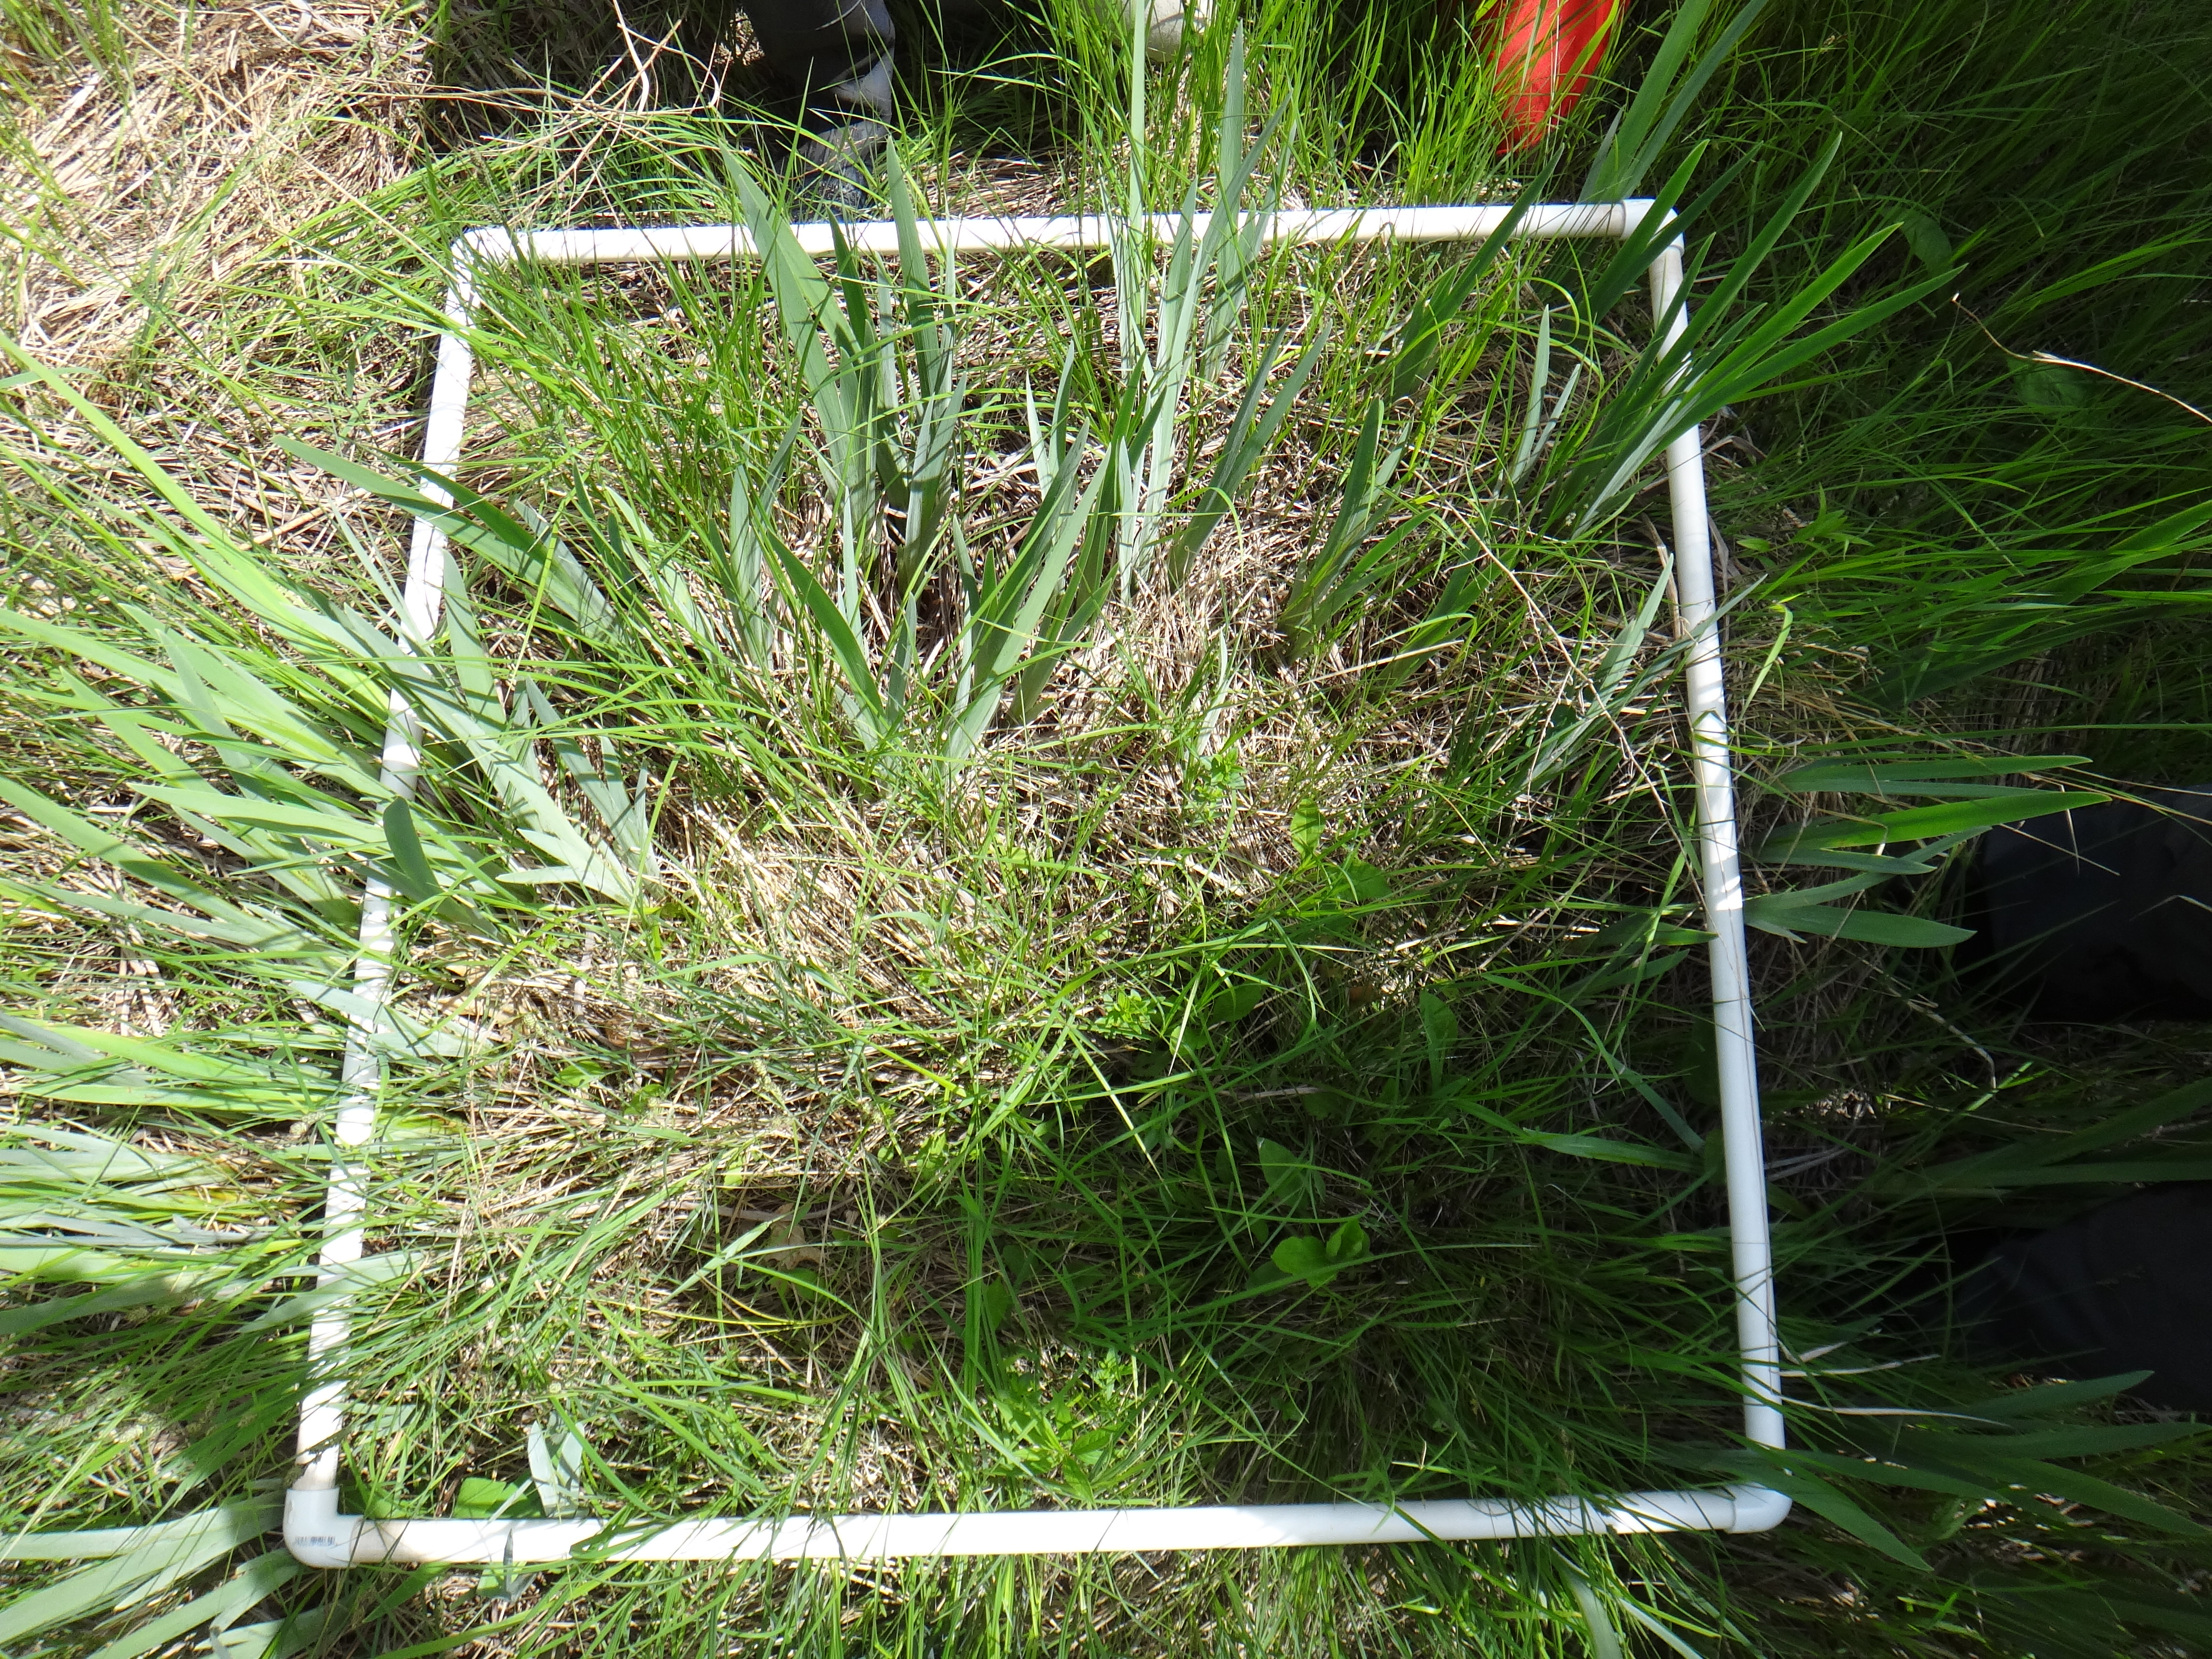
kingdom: Plantae
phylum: Tracheophyta
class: Liliopsida
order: Asparagales
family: Iridaceae
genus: Iris
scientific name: Iris virginica
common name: Southern blue flag
